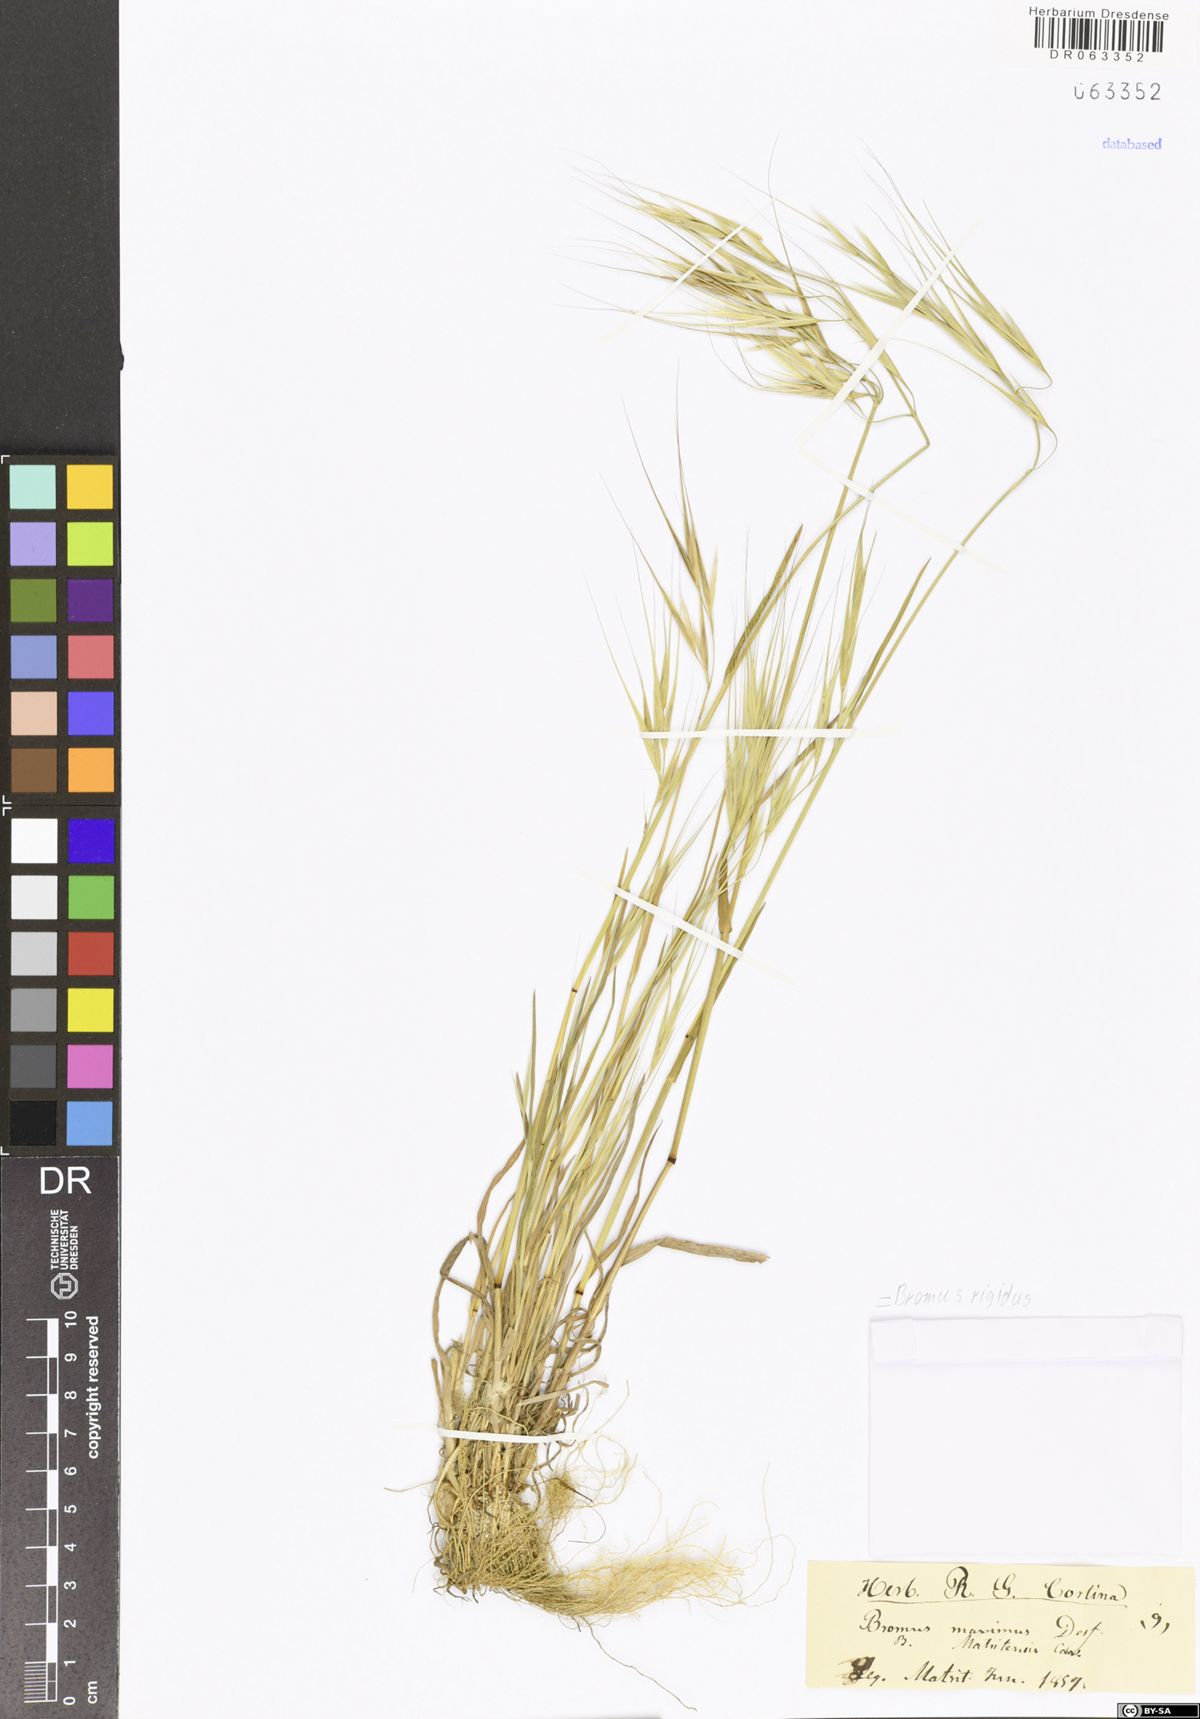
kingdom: Plantae
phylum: Tracheophyta
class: Liliopsida
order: Poales
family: Poaceae
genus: Bromus
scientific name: Bromus rigidus
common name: Ripgut brome
